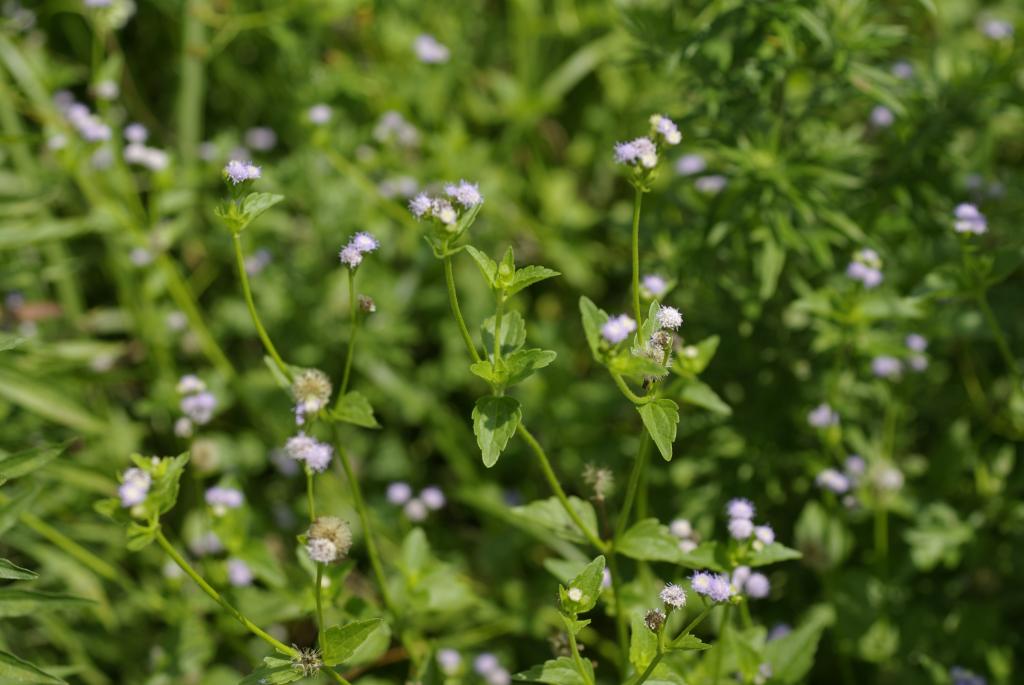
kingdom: Plantae
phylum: Tracheophyta
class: Magnoliopsida
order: Asterales
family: Asteraceae
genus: Praxelis
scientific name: Praxelis clematidea
